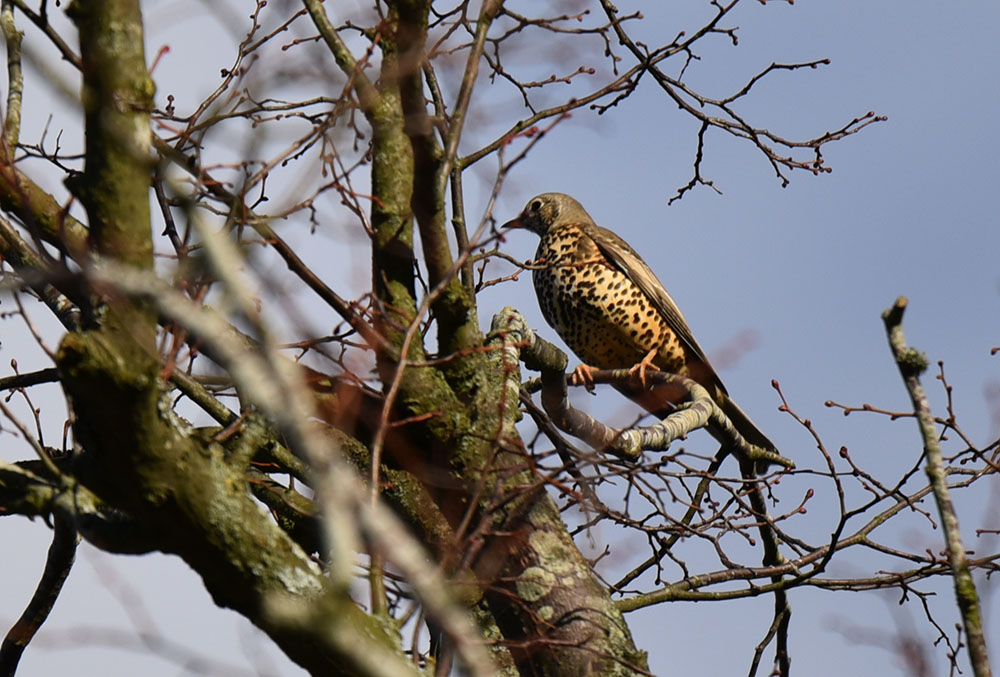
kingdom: Animalia
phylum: Chordata
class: Aves
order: Passeriformes
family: Turdidae
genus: Turdus
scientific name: Turdus viscivorus
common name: Mistle thrush
